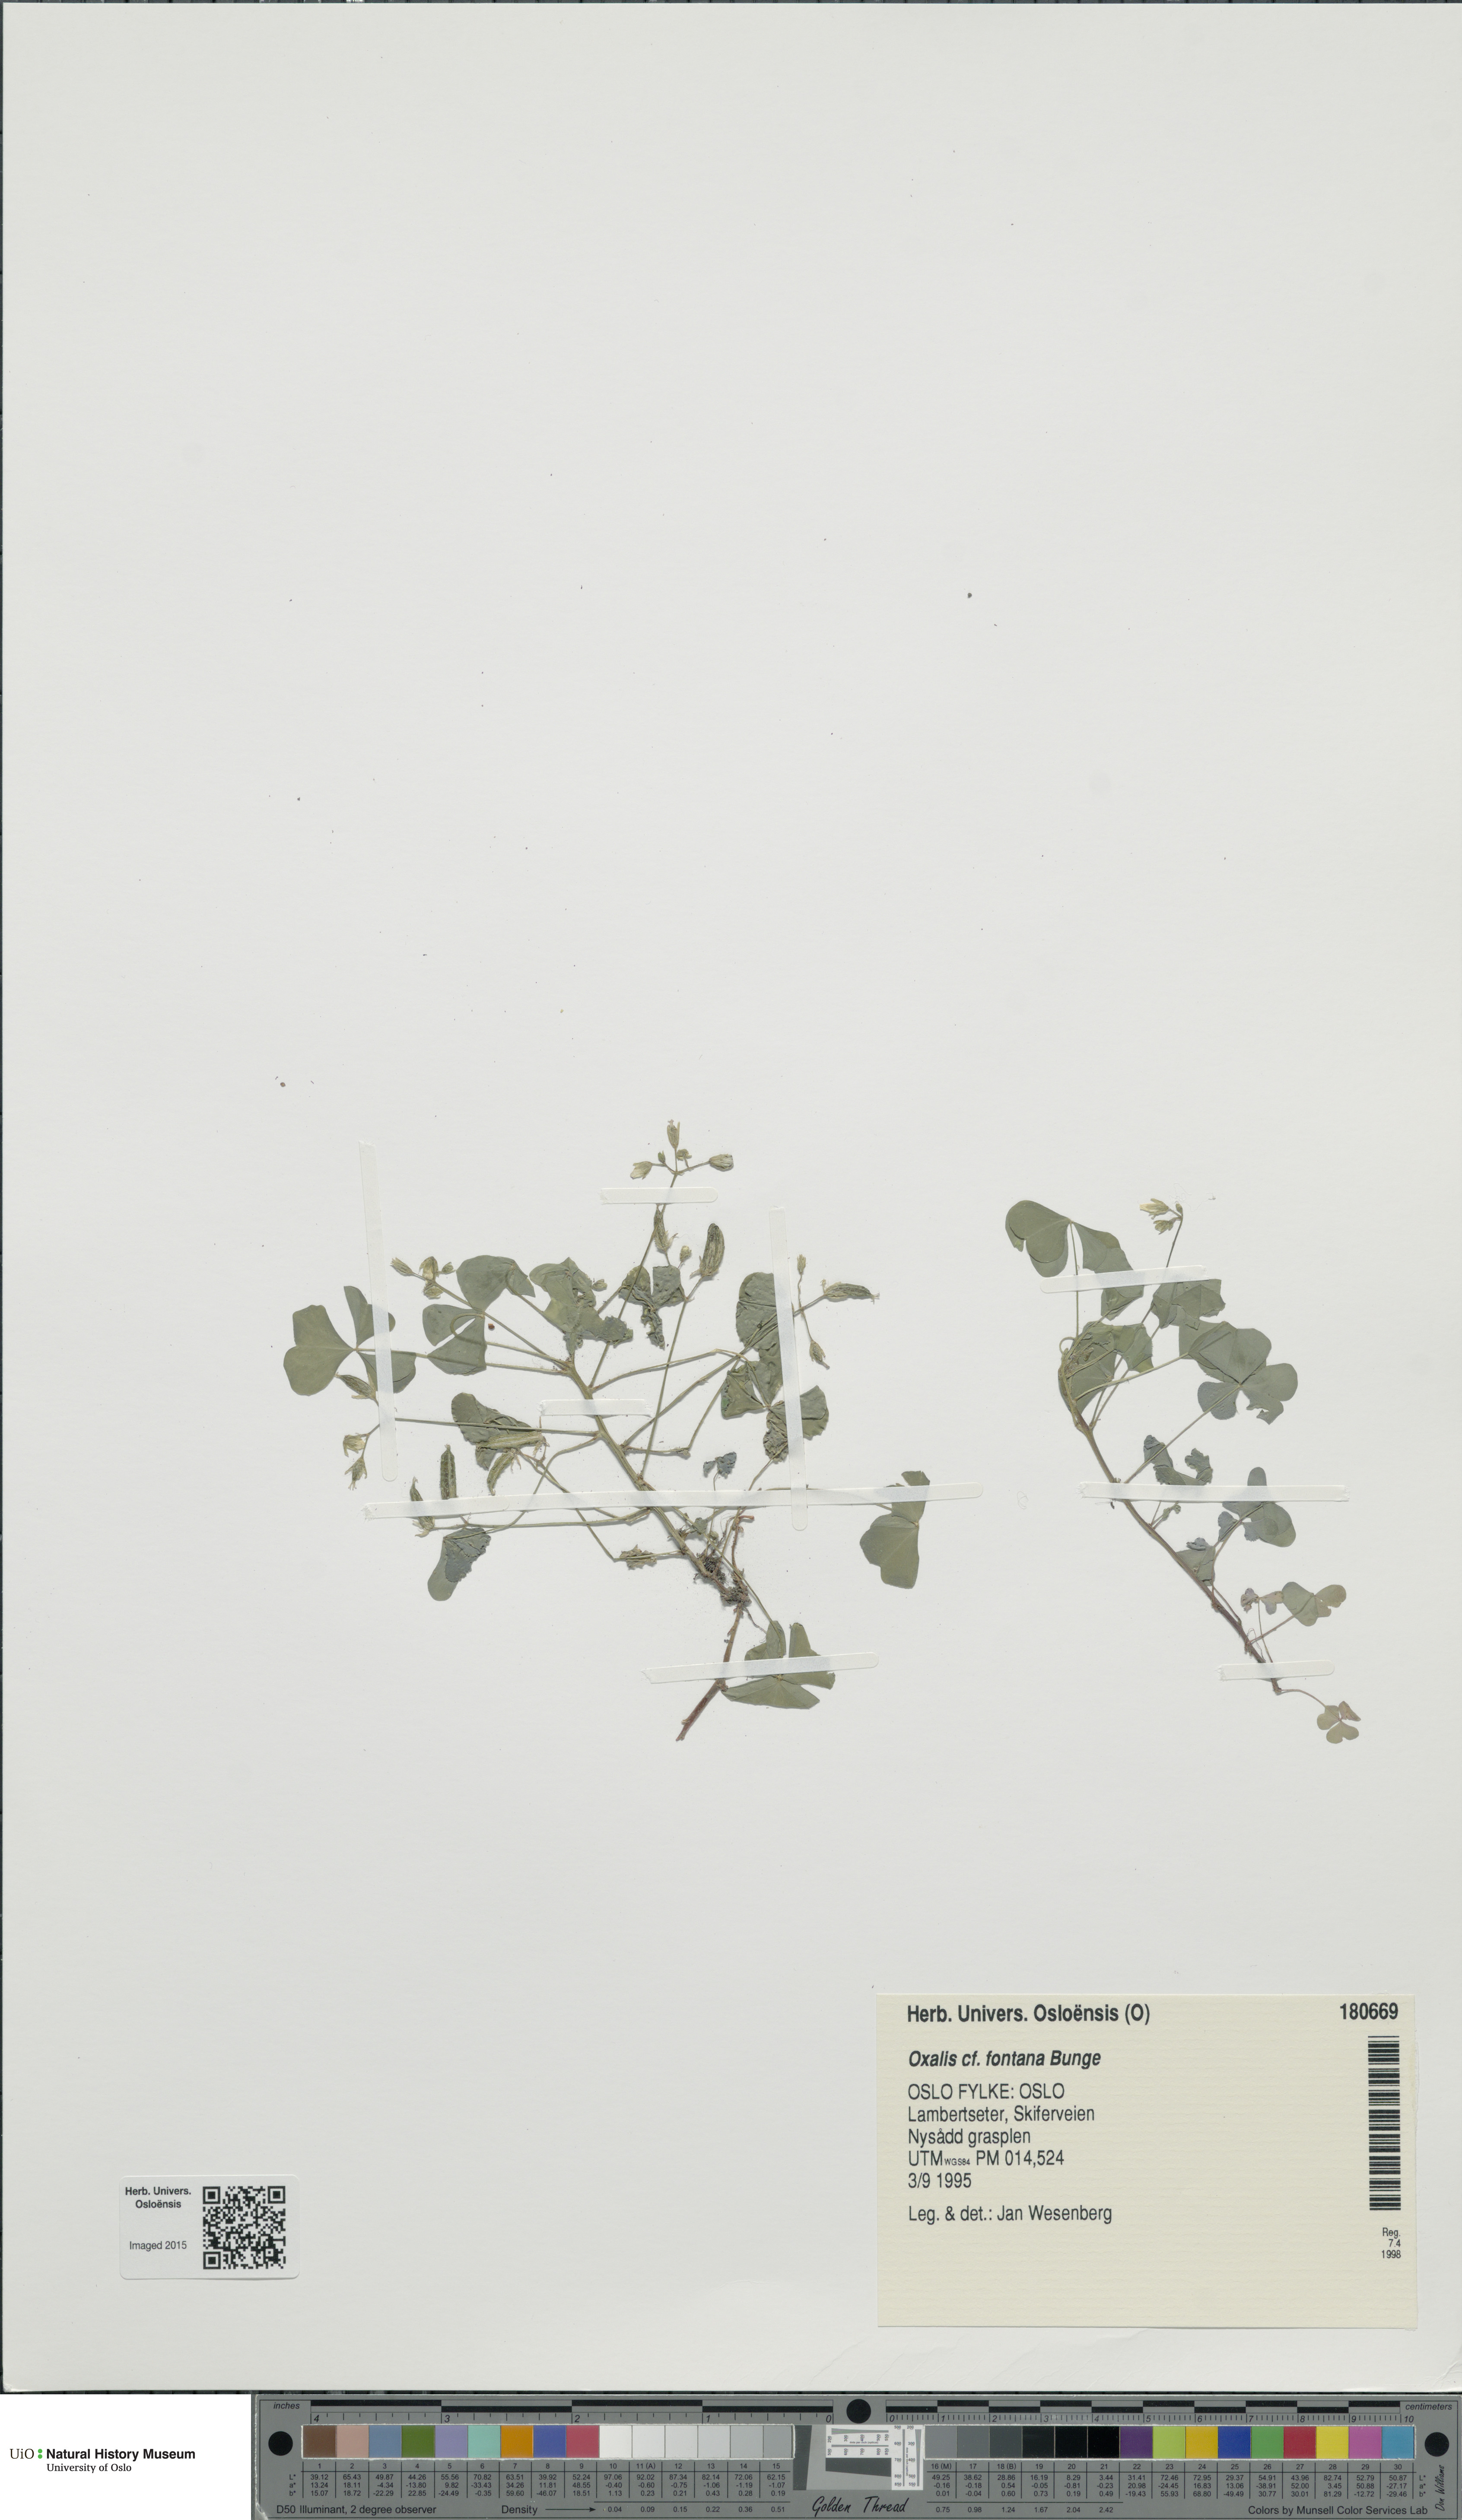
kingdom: Plantae
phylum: Tracheophyta
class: Magnoliopsida
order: Oxalidales
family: Oxalidaceae
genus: Oxalis
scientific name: Oxalis stricta
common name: Upright yellow-sorrel
